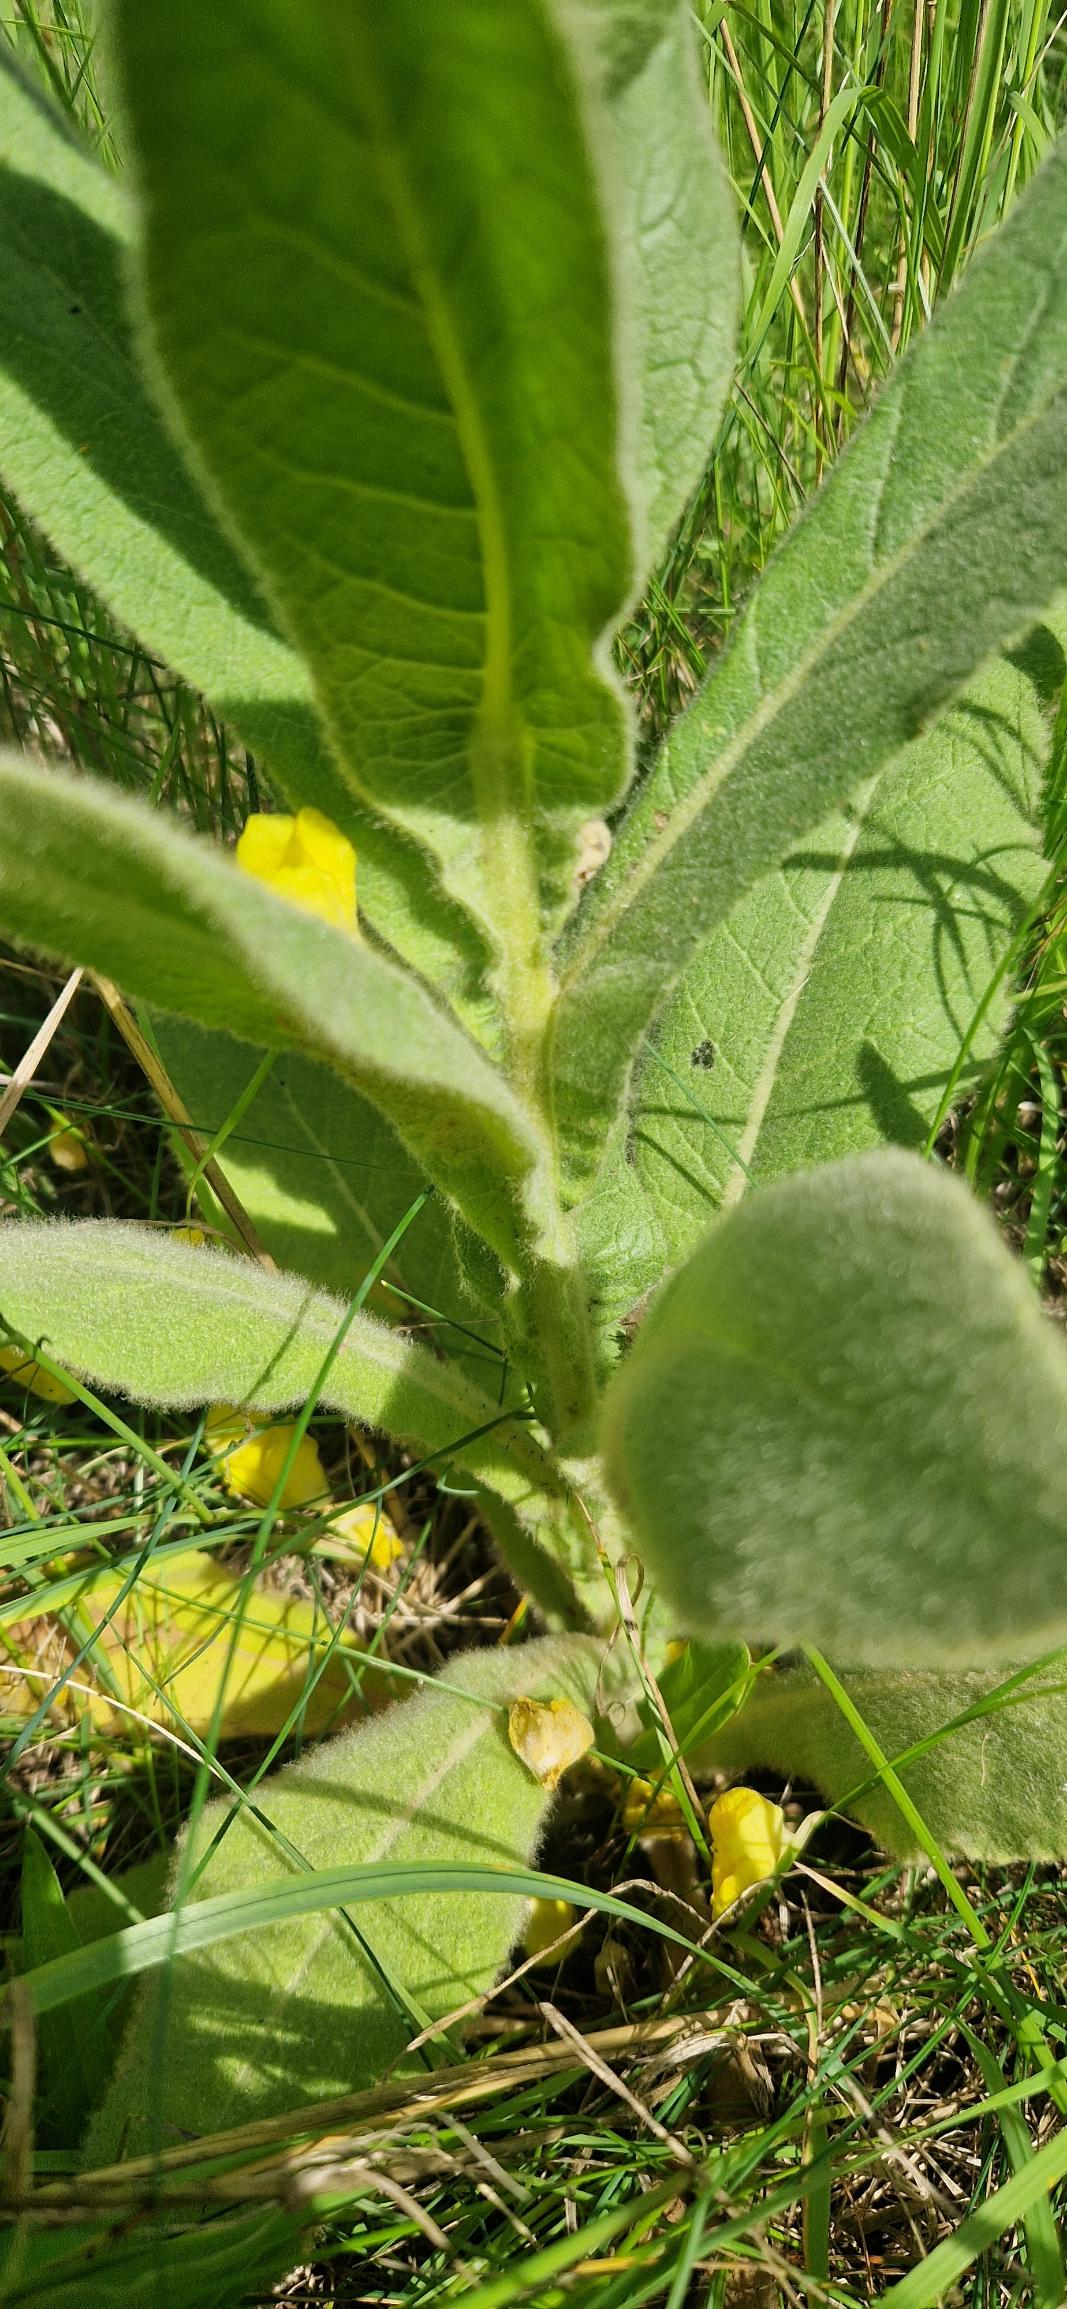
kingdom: Plantae
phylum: Tracheophyta
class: Magnoliopsida
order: Lamiales
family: Scrophulariaceae
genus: Verbascum
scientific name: Verbascum densiflorum
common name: Uldbladet kongelys
